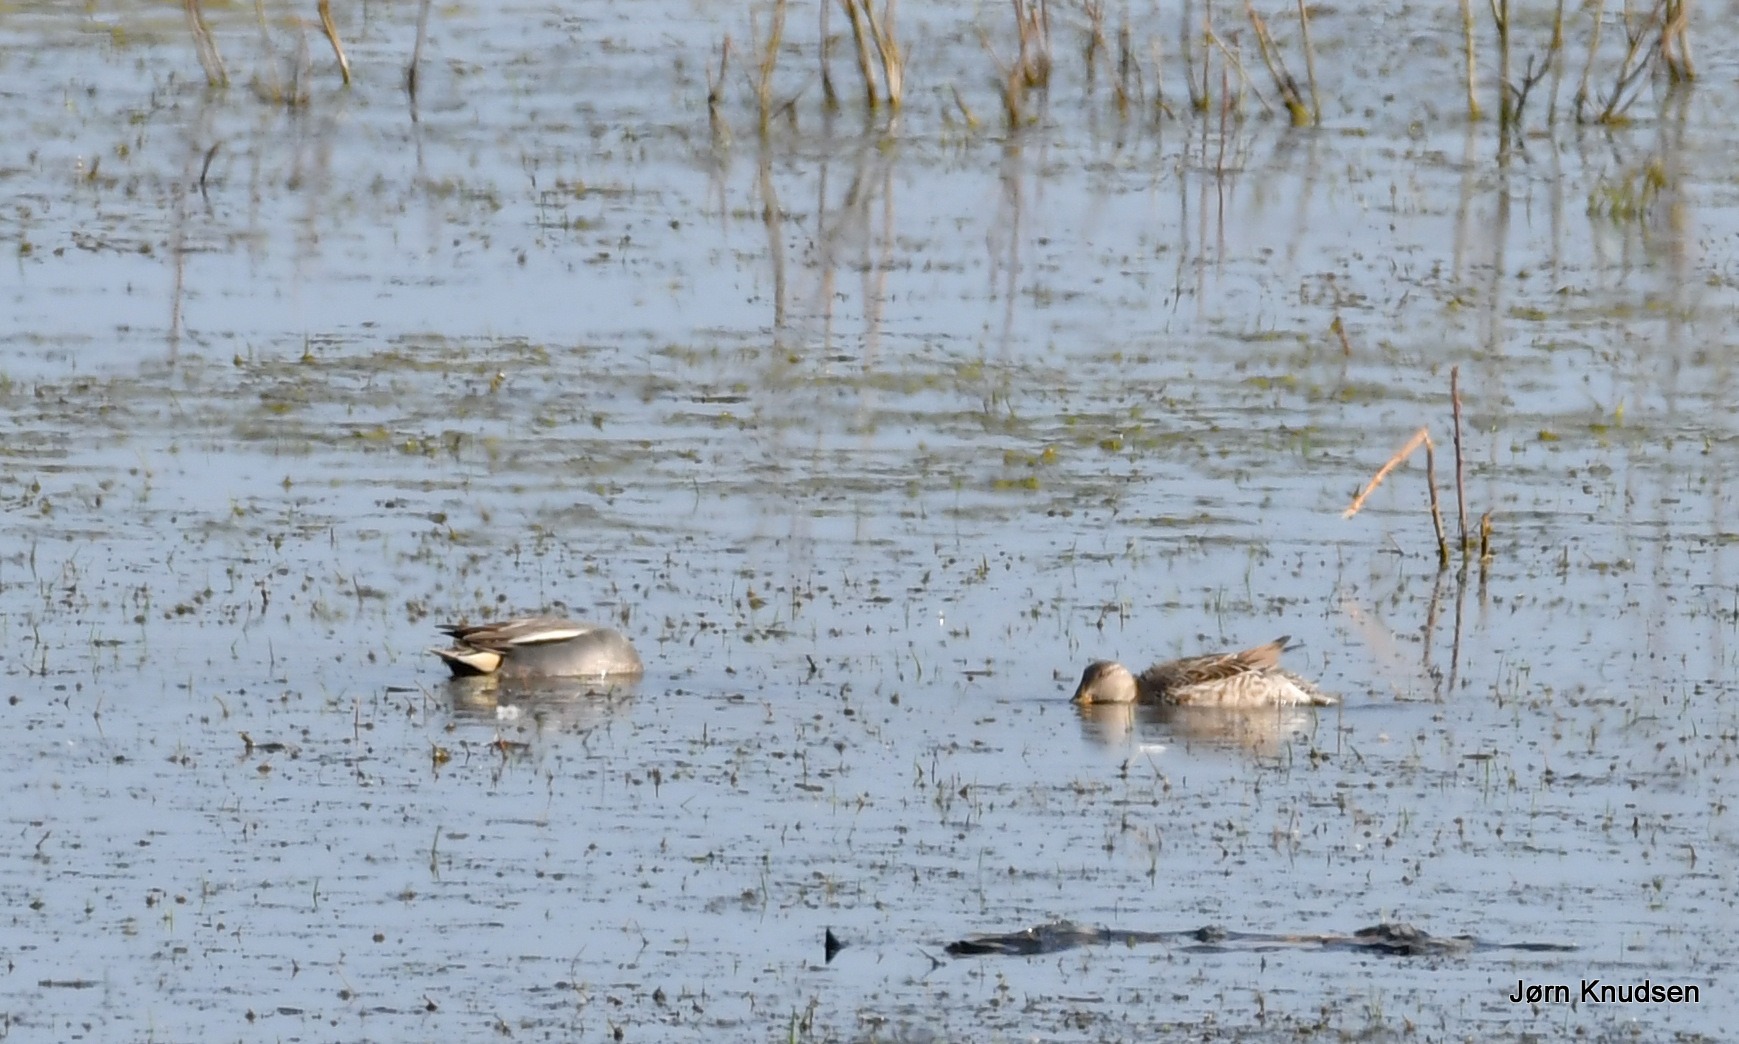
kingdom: Animalia
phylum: Chordata
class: Aves
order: Anseriformes
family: Anatidae
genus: Anas
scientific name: Anas crecca
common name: Krikand
